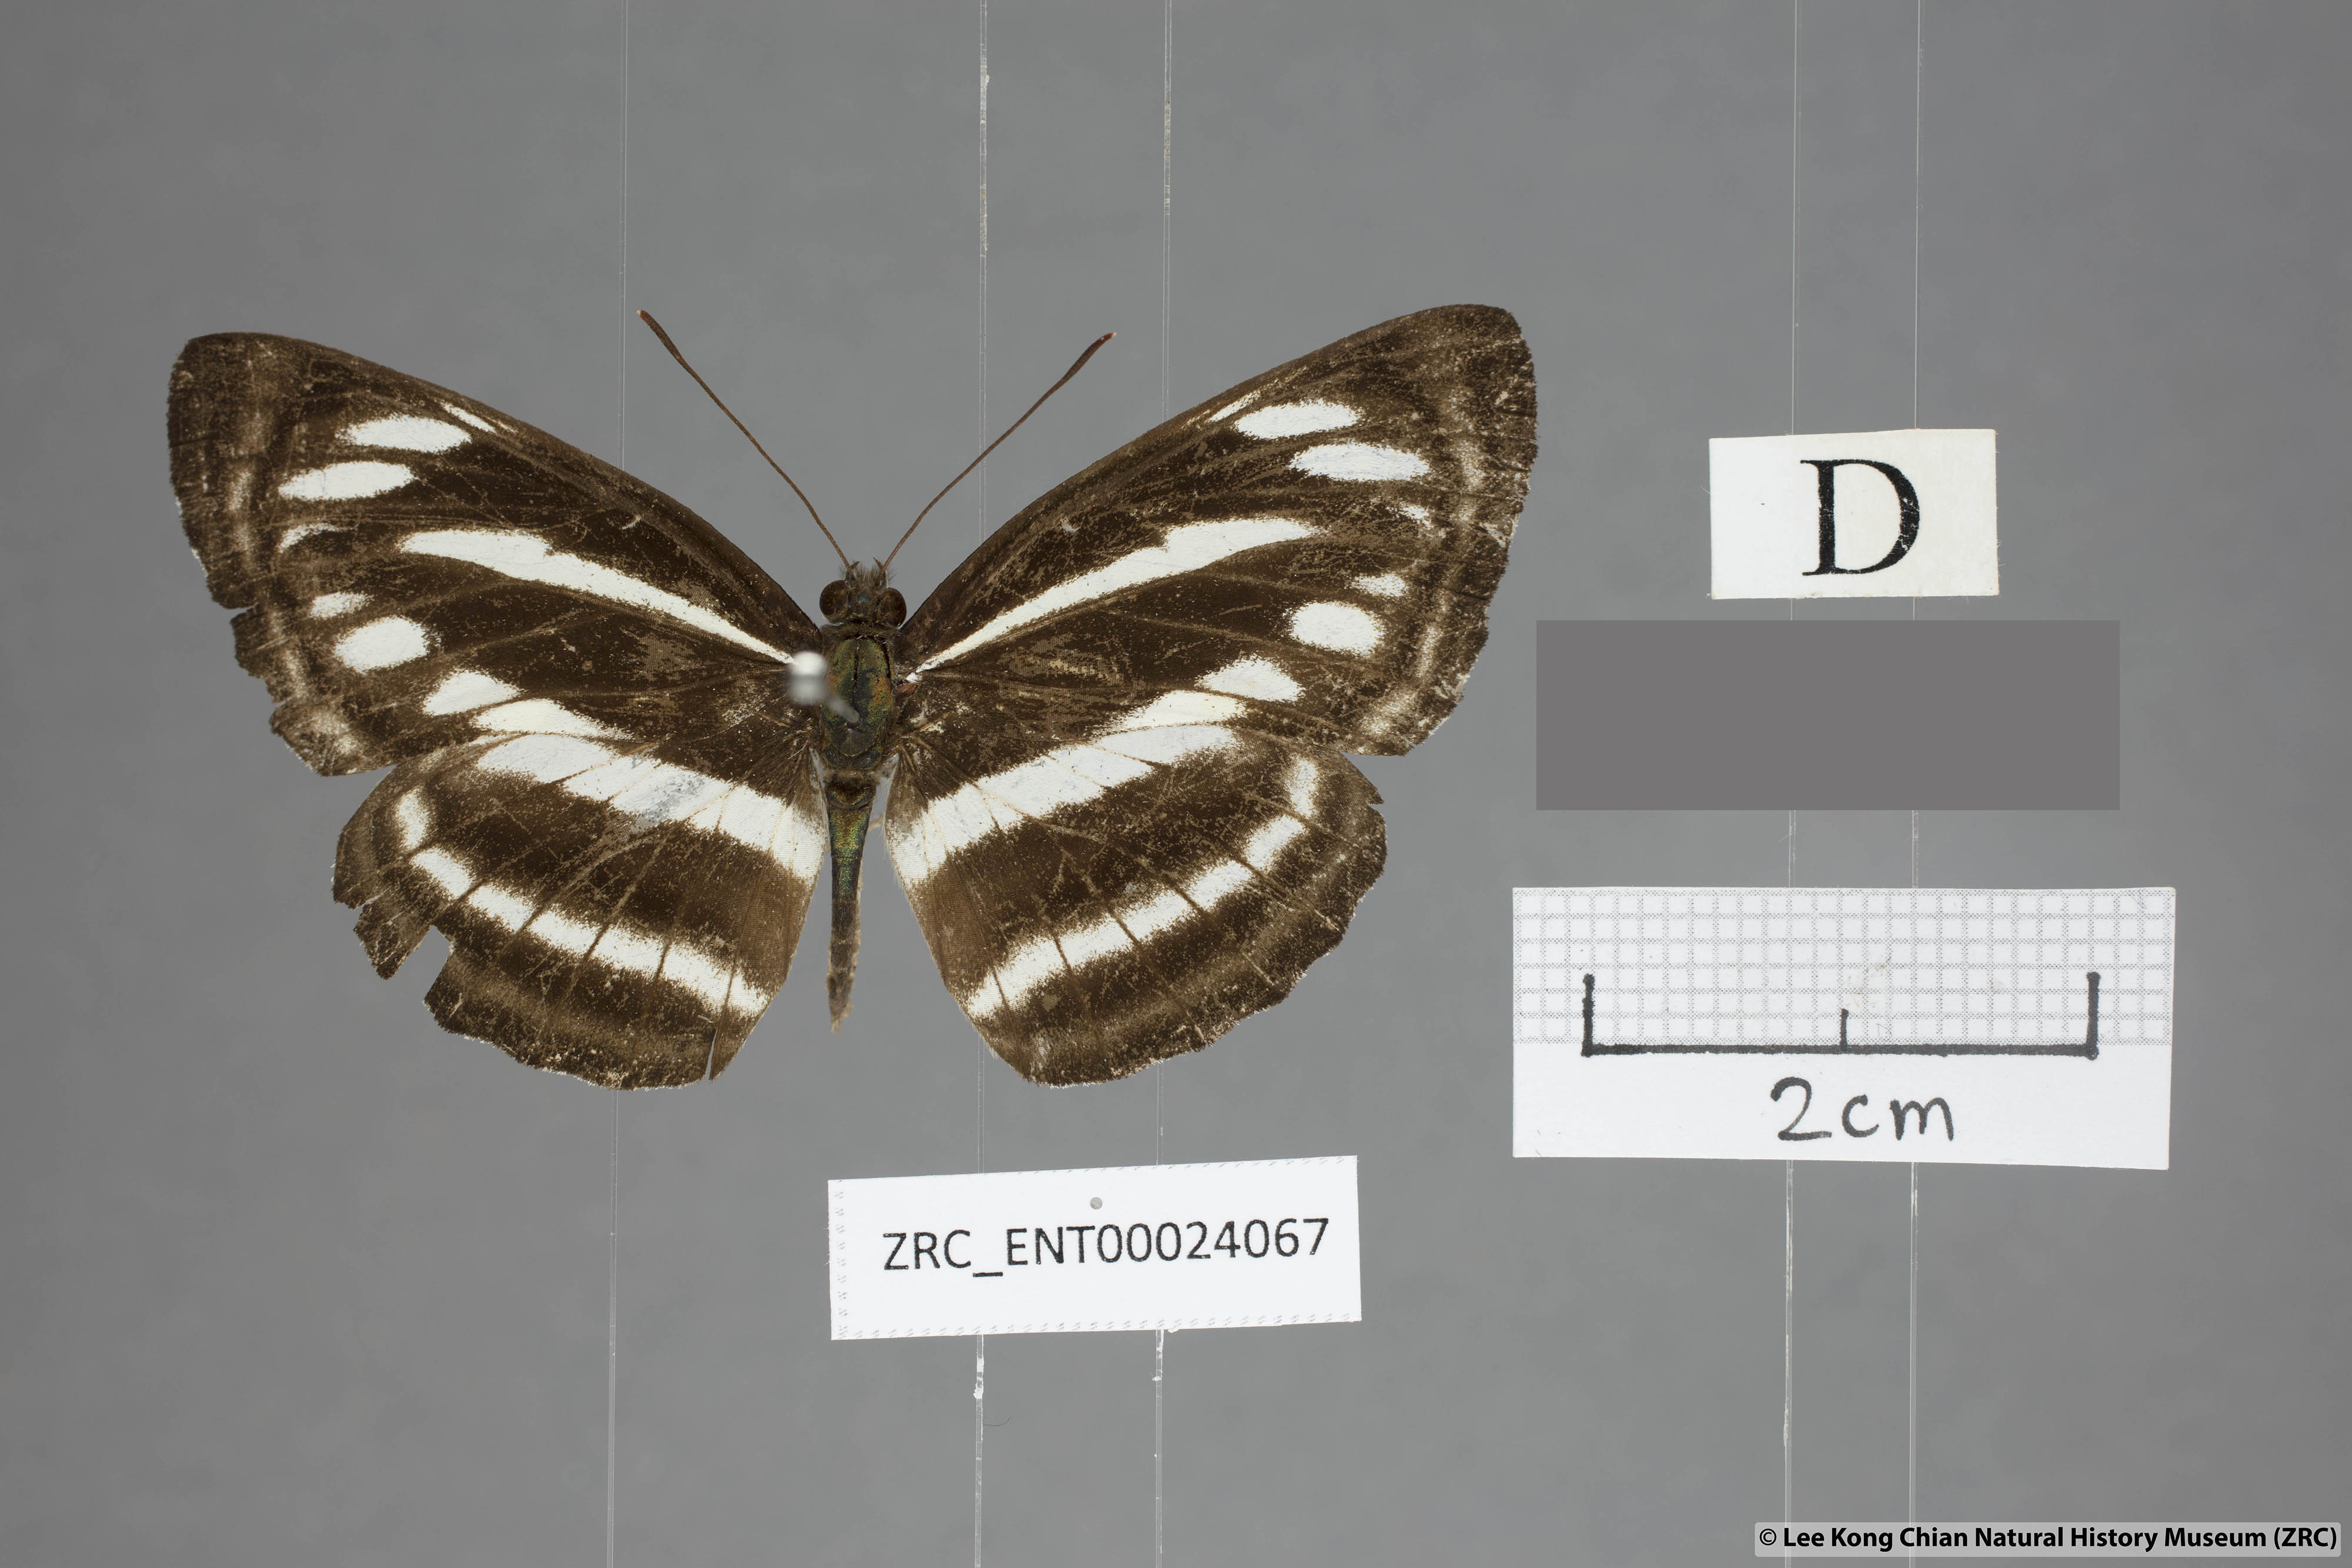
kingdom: Animalia
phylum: Arthropoda
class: Insecta
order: Lepidoptera
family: Nymphalidae
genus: Neptis
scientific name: Neptis sankara
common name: Broad-banded sailer
